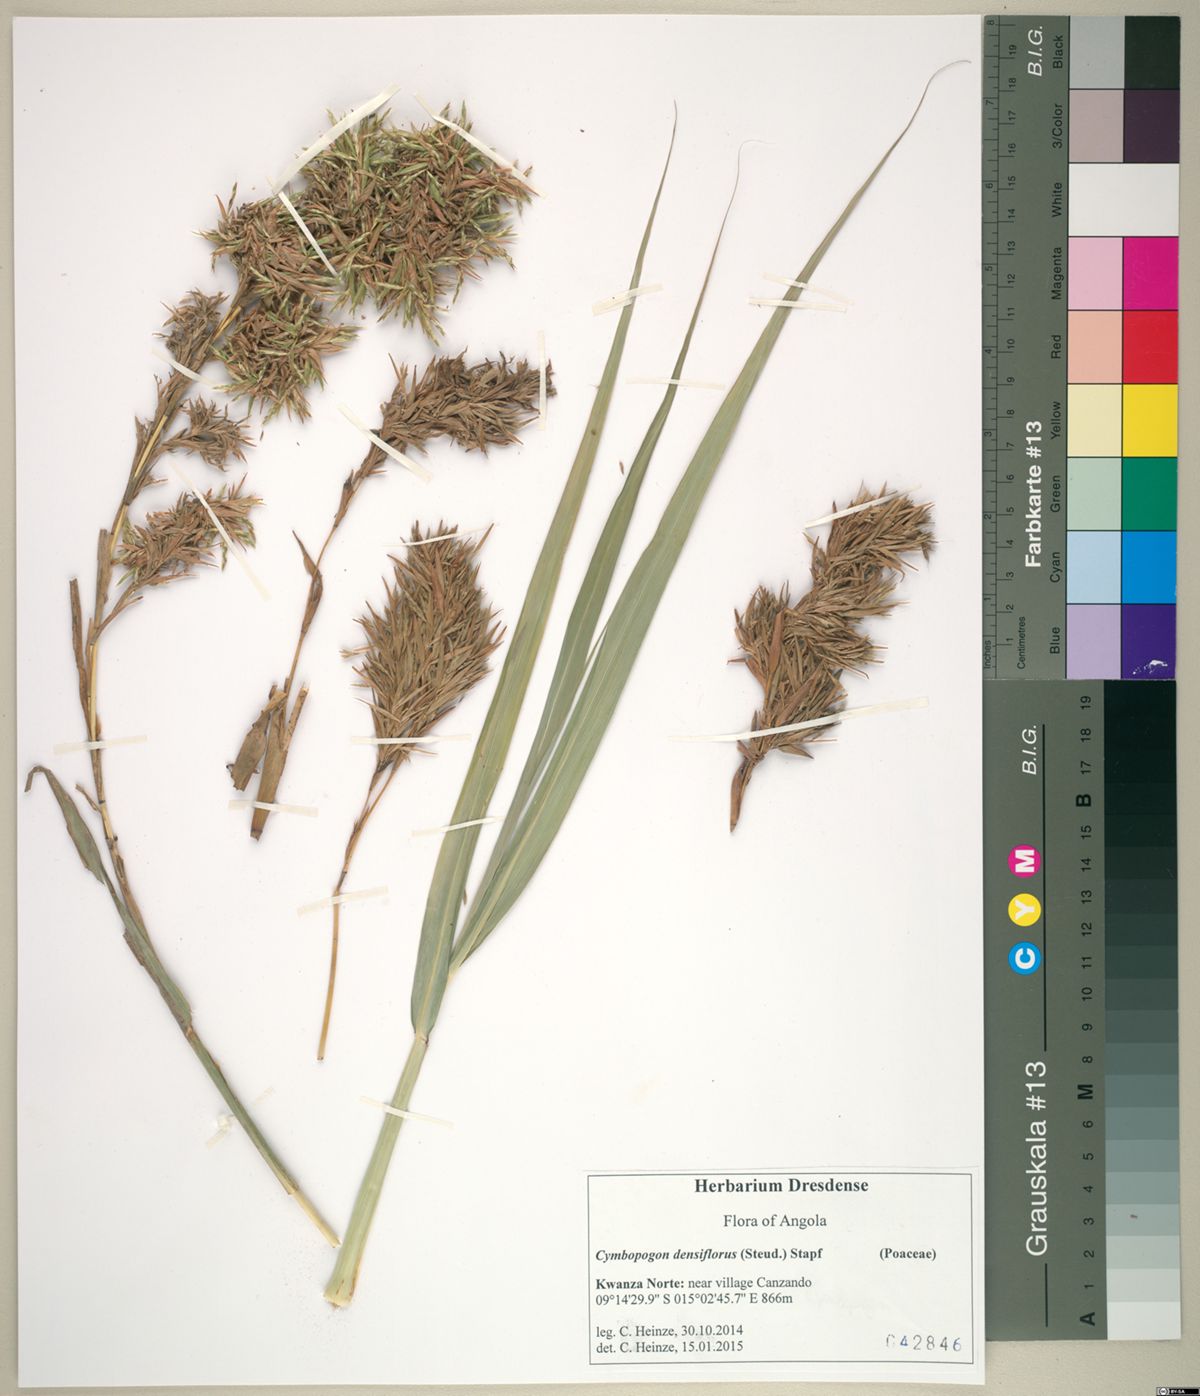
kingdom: Plantae
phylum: Tracheophyta
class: Liliopsida
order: Poales
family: Poaceae
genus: Cymbopogon
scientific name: Cymbopogon densiflorus
